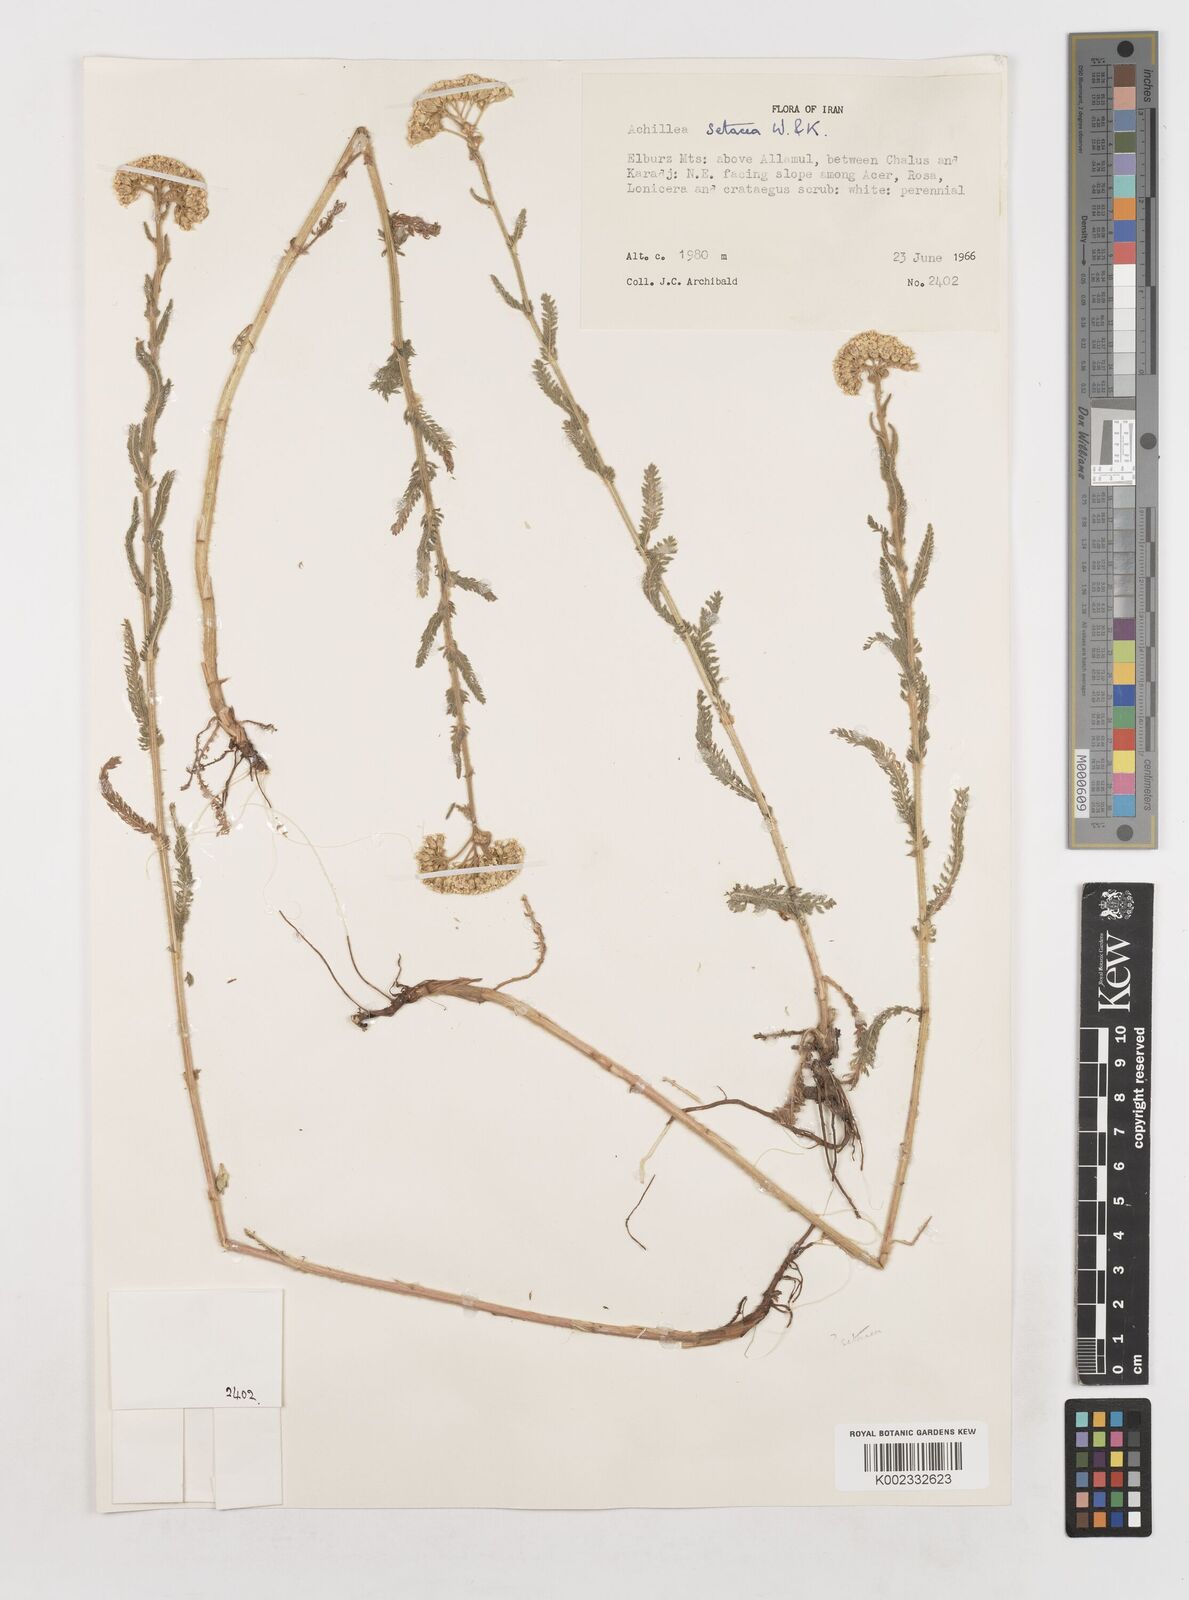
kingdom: Plantae
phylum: Tracheophyta
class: Magnoliopsida
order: Asterales
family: Asteraceae
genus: Achillea
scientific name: Achillea setacea
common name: Bristly yarrow
